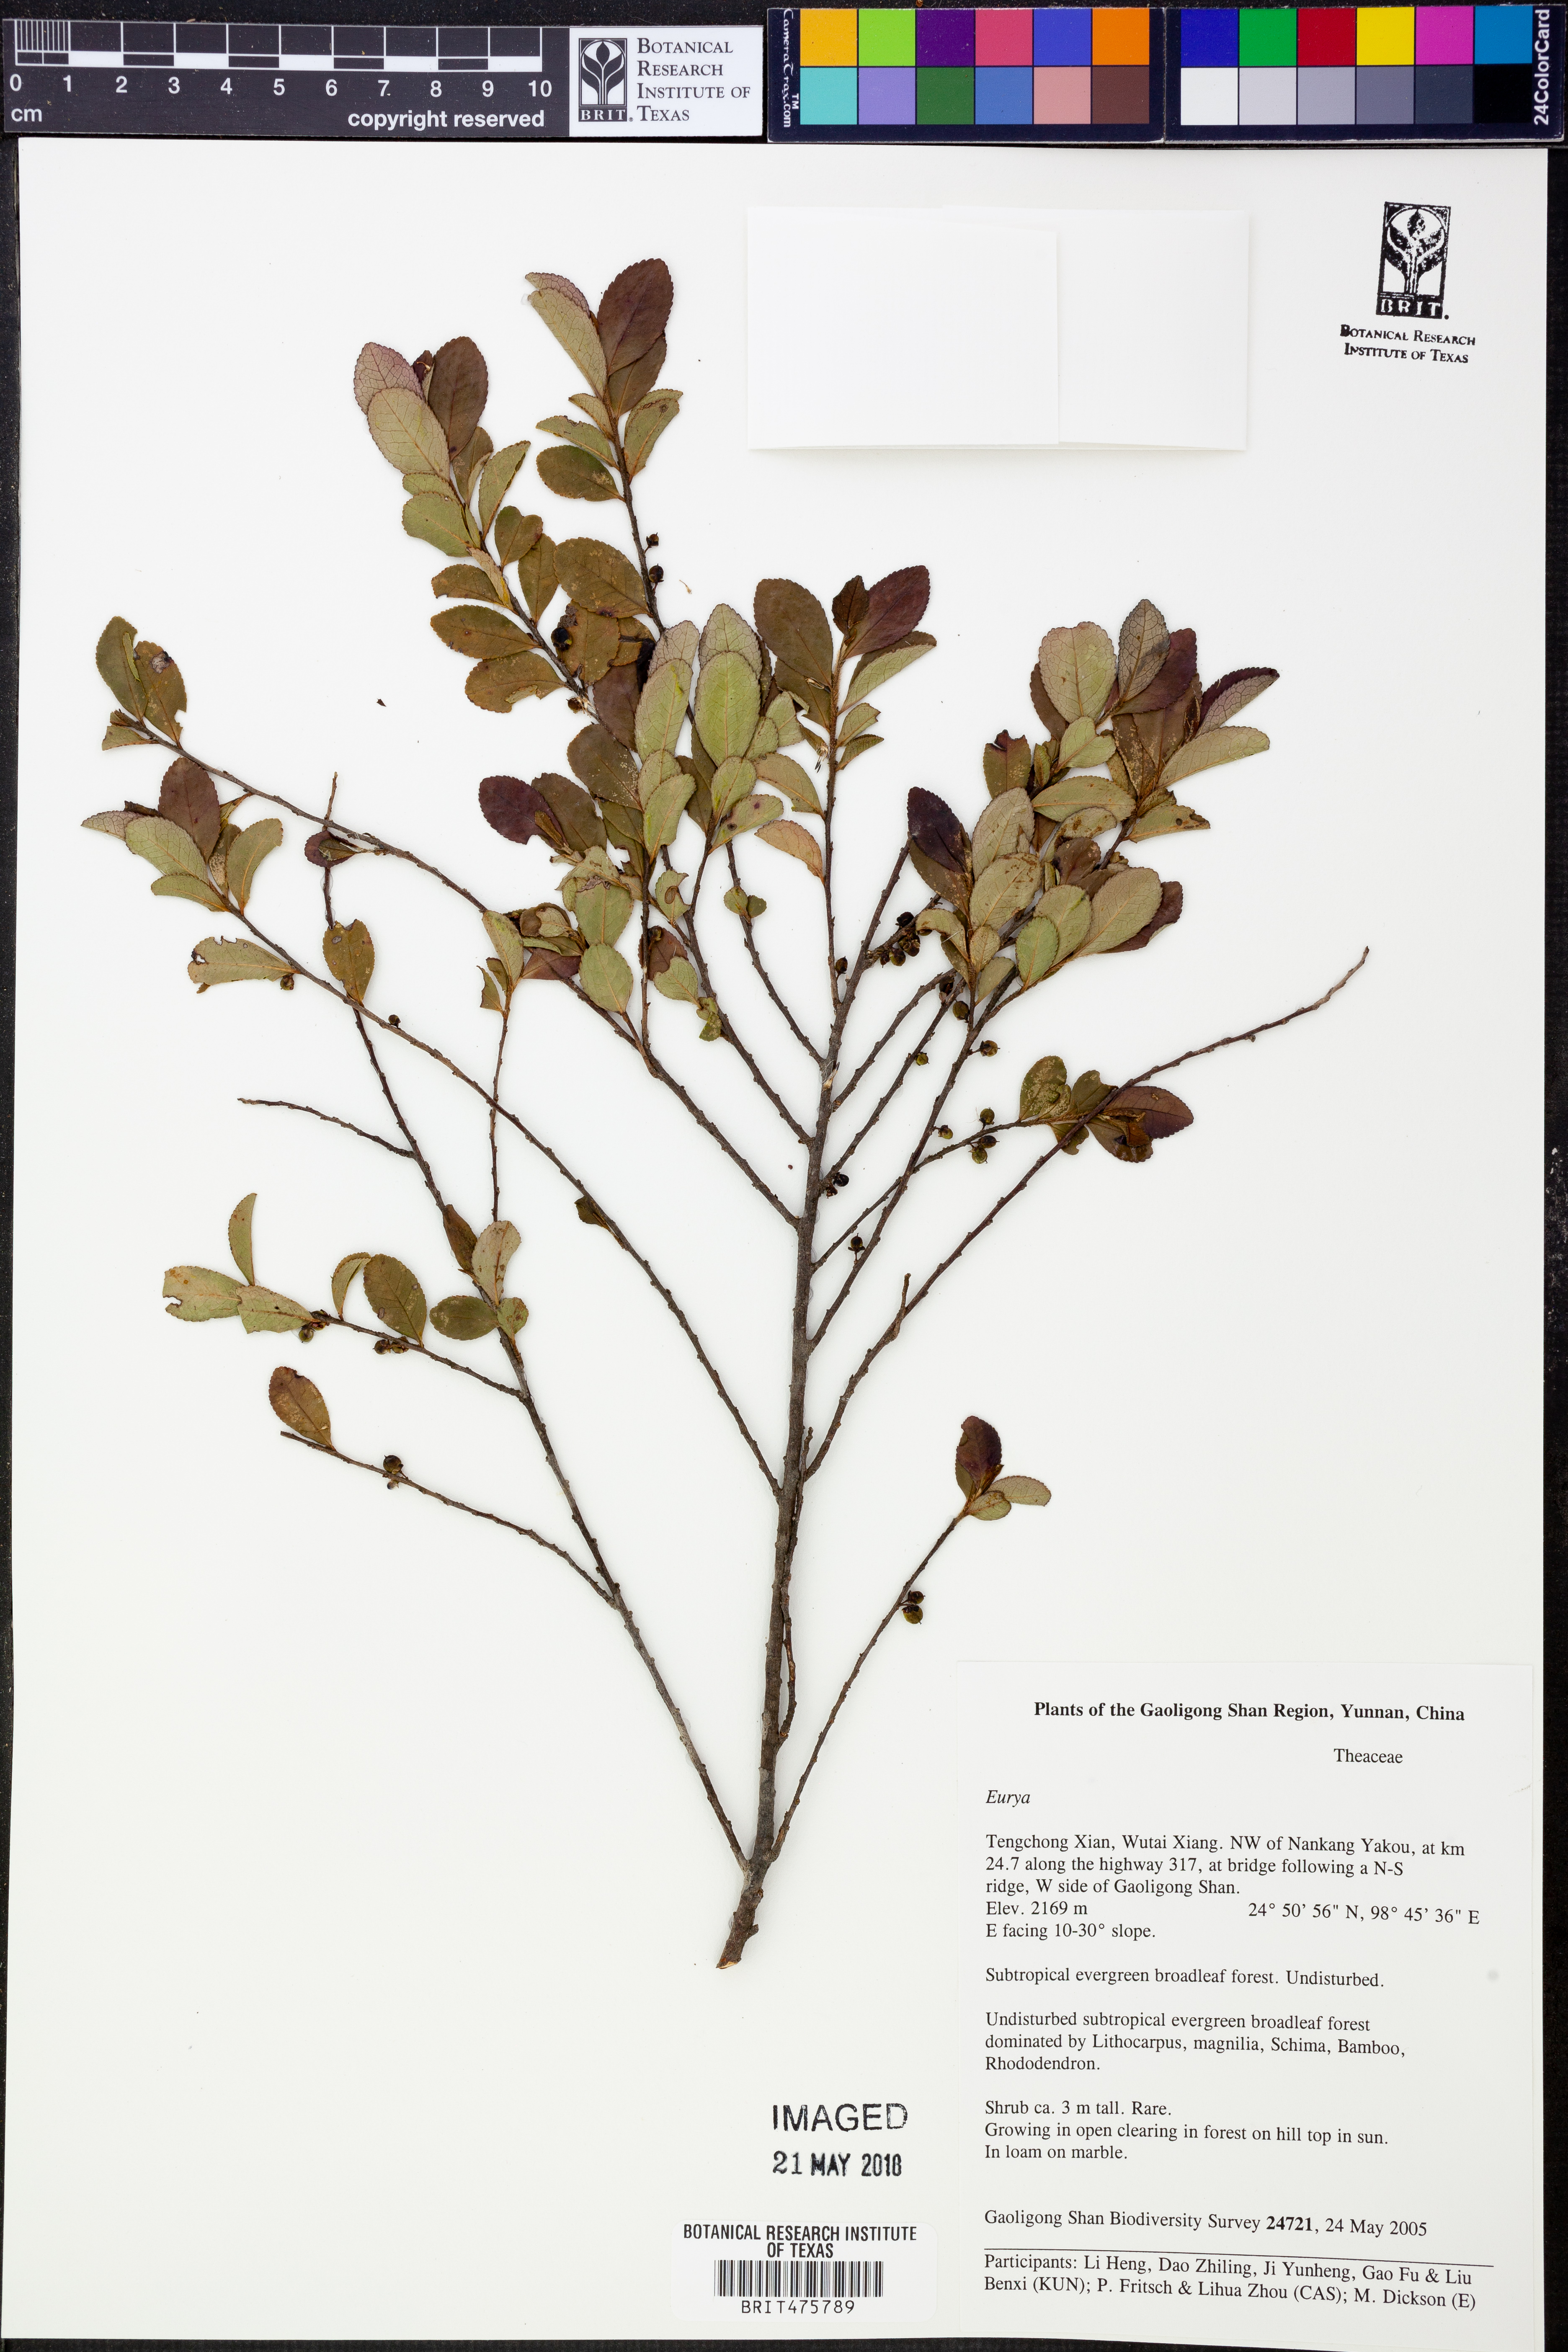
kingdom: Plantae
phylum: Tracheophyta
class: Magnoliopsida
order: Ericales
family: Pentaphylacaceae
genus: Eurya
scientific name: Eurya
